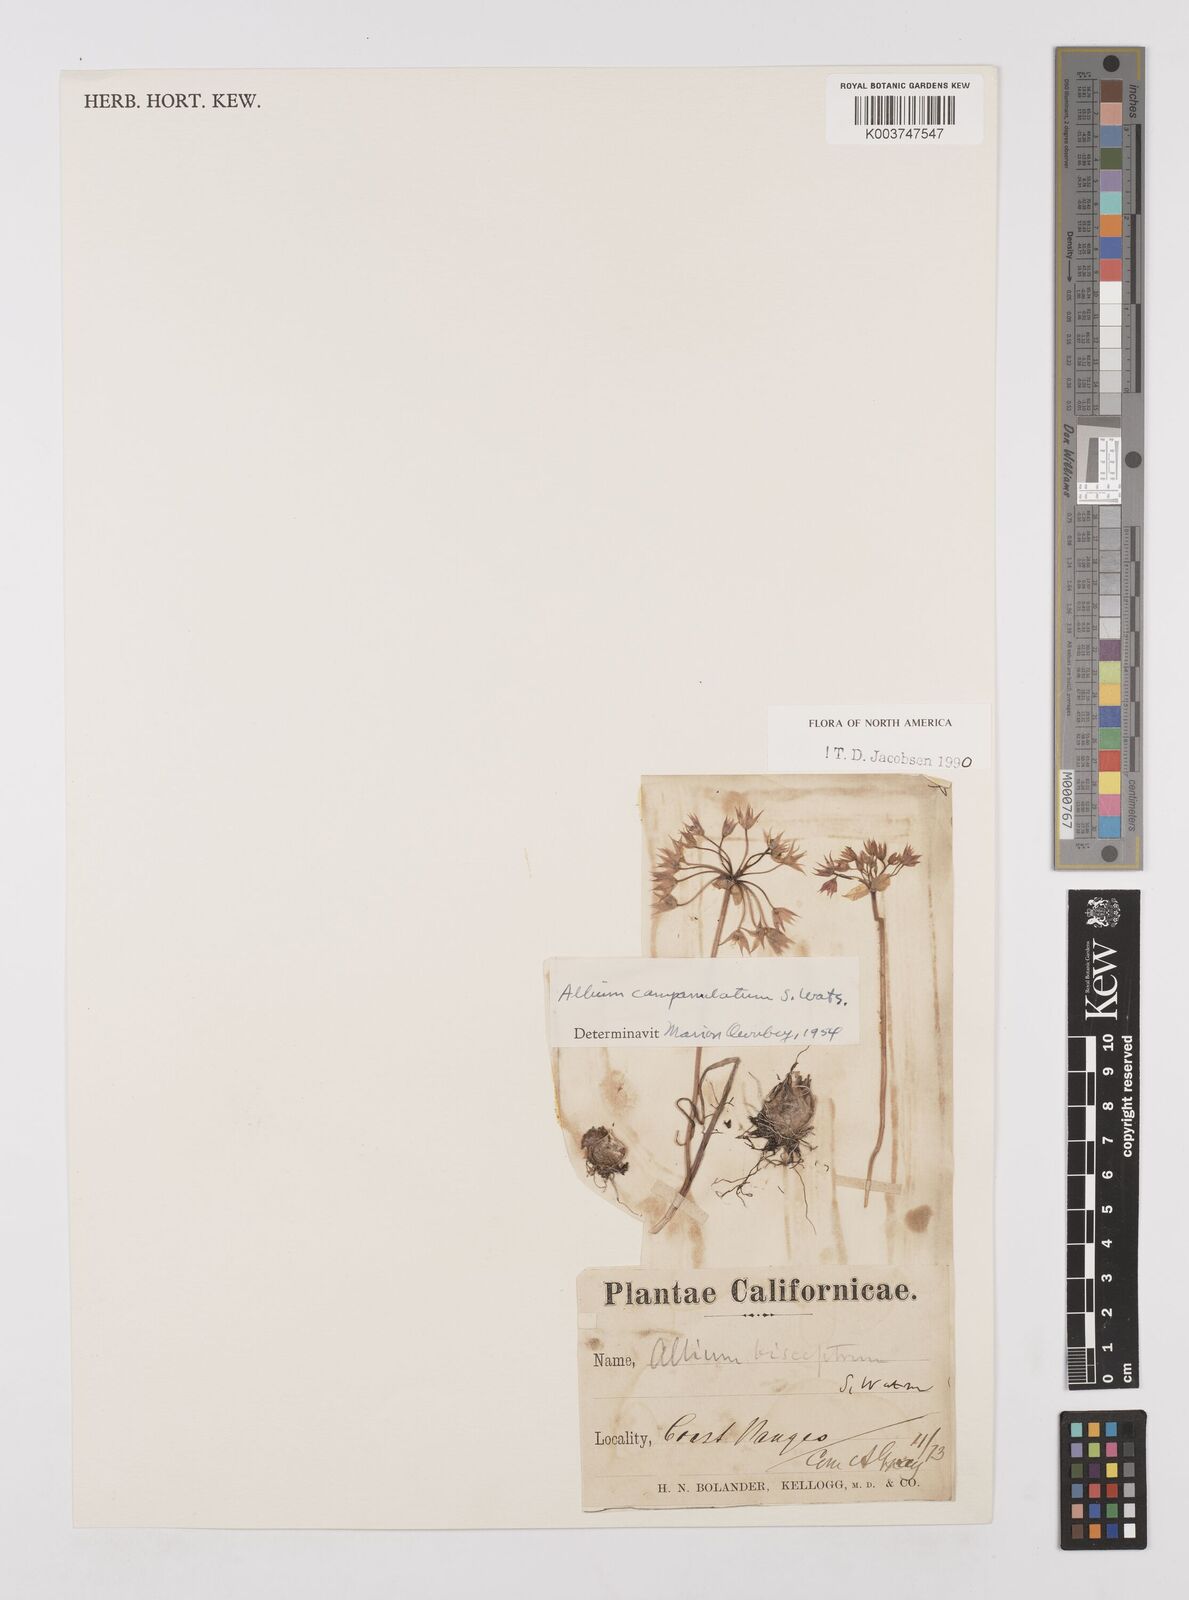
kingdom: Plantae
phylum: Tracheophyta
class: Liliopsida
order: Asparagales
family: Amaryllidaceae
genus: Allium
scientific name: Allium campanulatum
